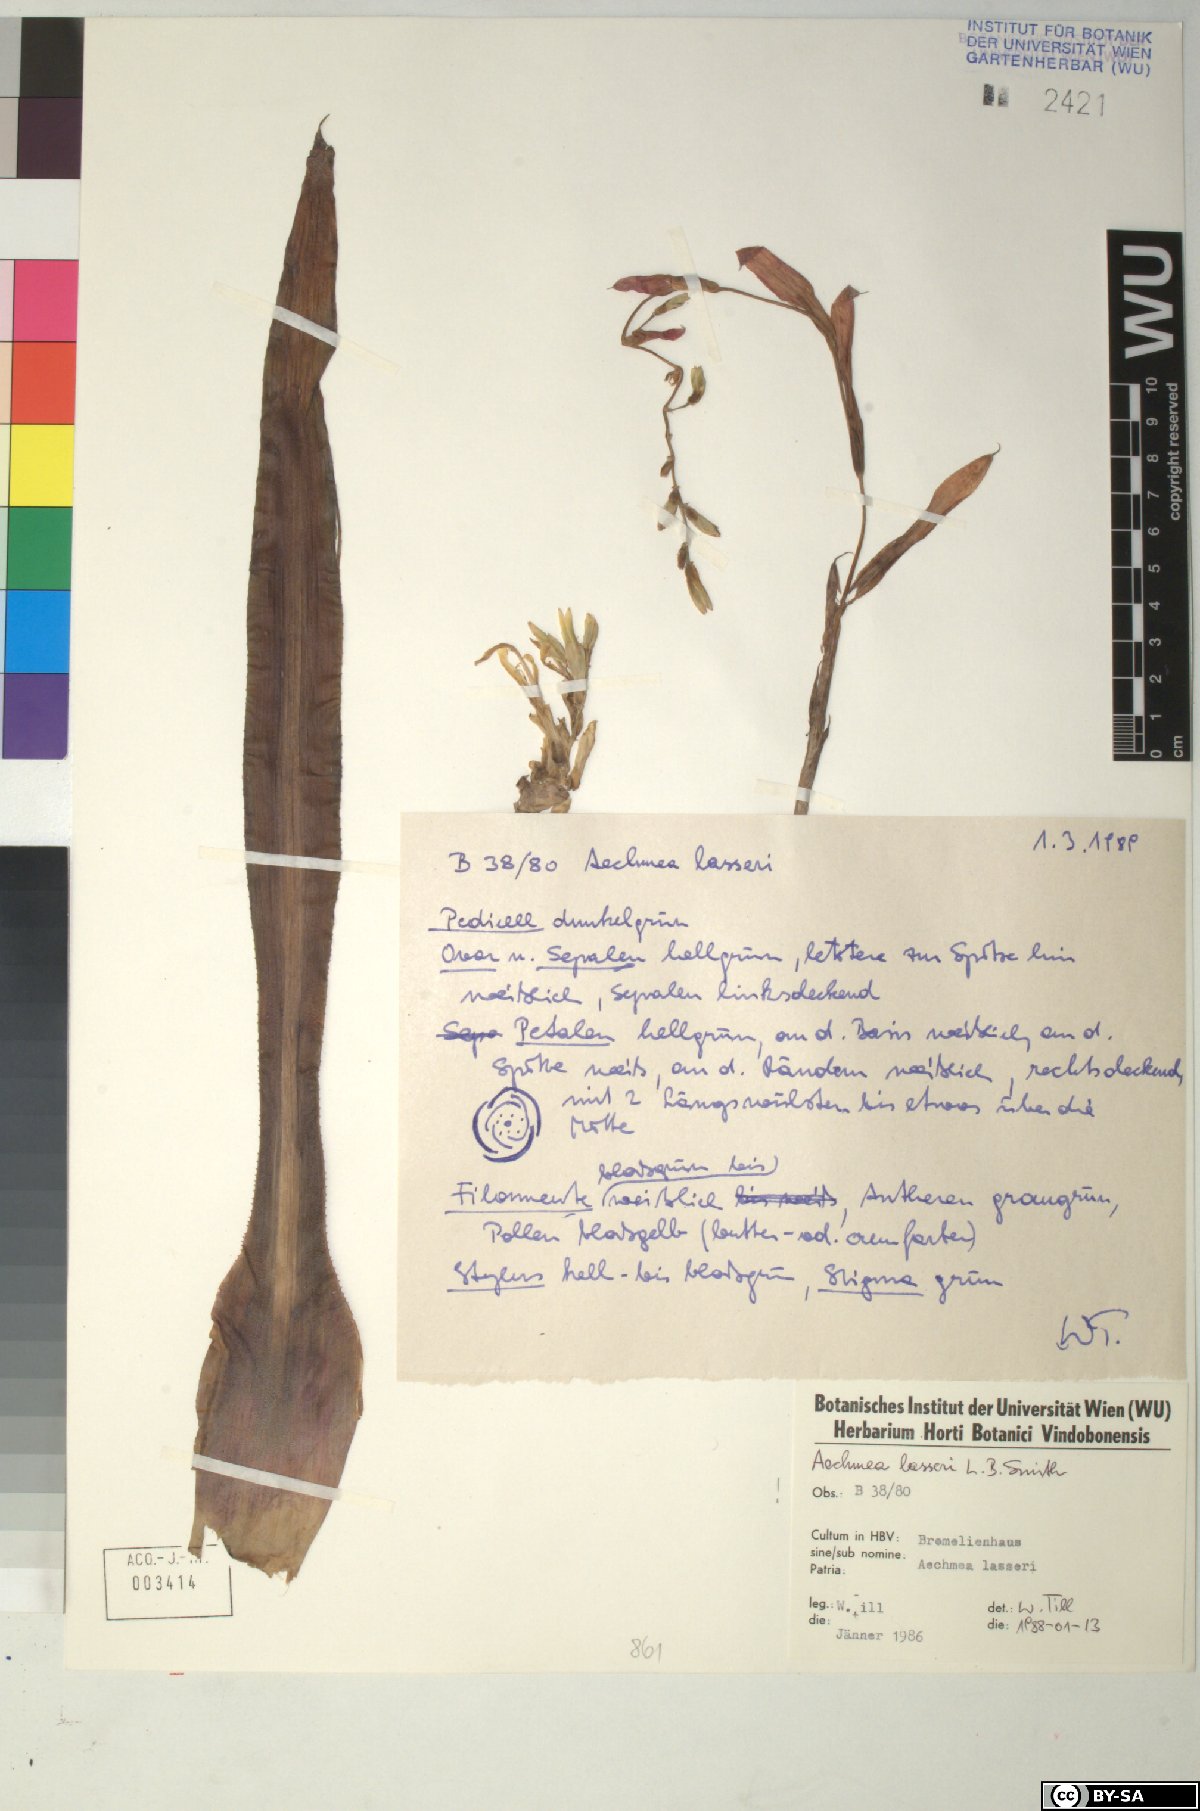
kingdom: Plantae
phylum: Tracheophyta
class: Liliopsida
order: Poales
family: Bromeliaceae
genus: Aechmea
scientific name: Aechmea lasseri
